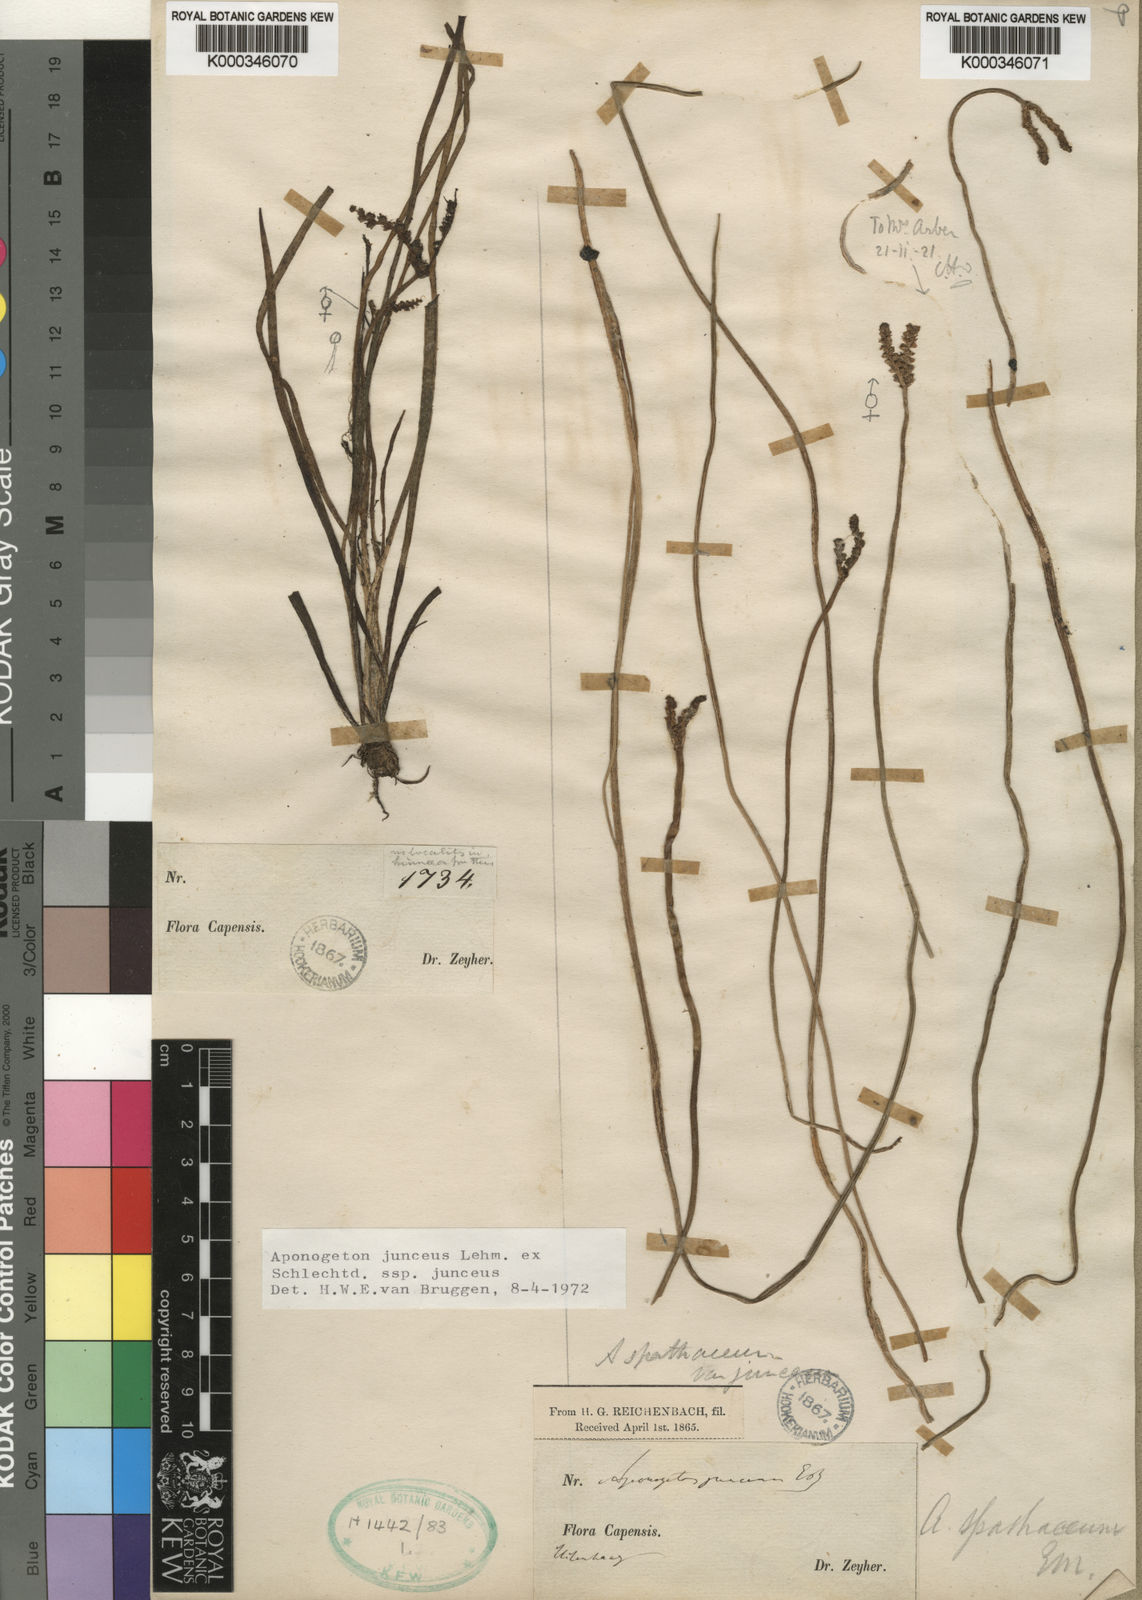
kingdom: Plantae
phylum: Tracheophyta
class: Liliopsida
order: Alismatales
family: Aponogetonaceae
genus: Aponogeton
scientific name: Aponogeton junceus
